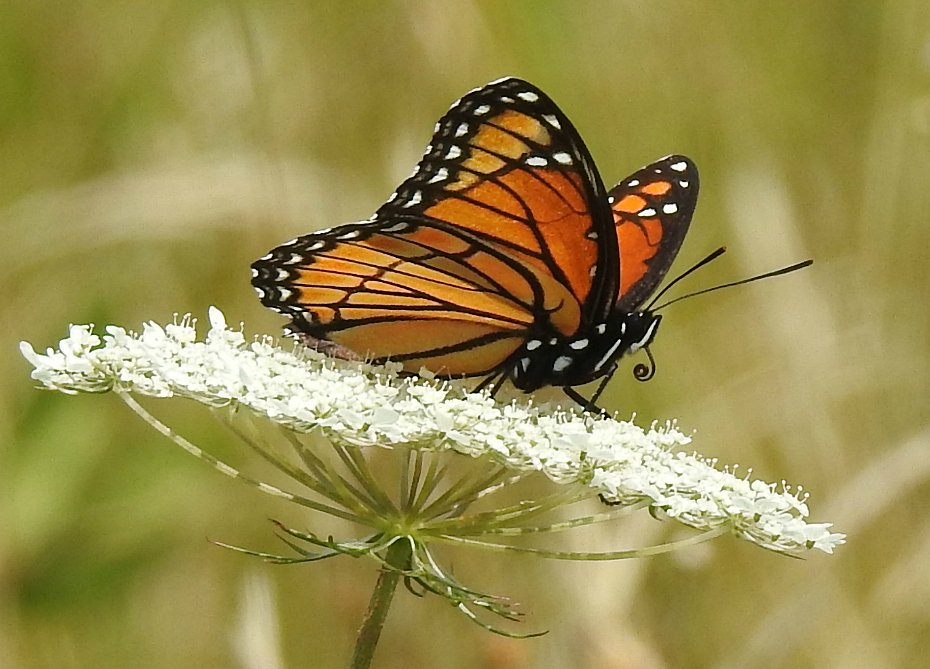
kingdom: Animalia
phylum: Arthropoda
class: Insecta
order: Lepidoptera
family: Nymphalidae
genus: Limenitis
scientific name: Limenitis archippus
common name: Viceroy
